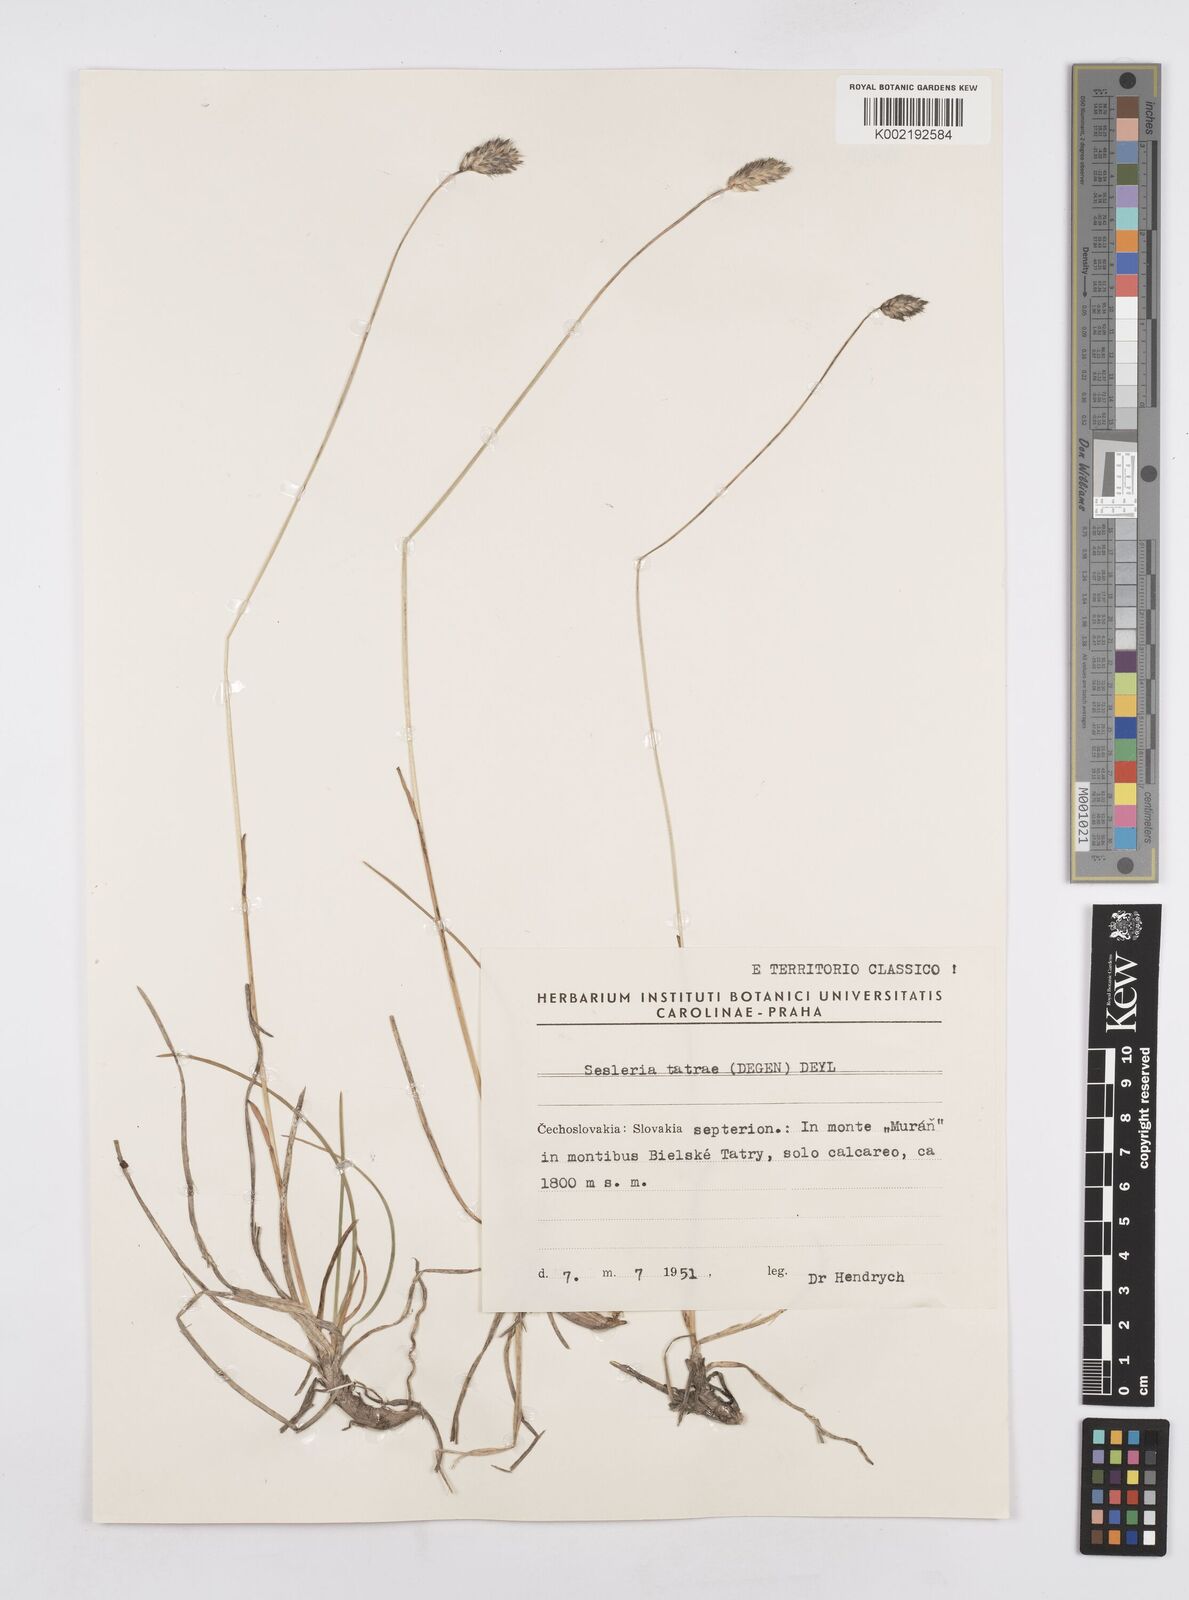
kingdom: Plantae
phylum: Tracheophyta
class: Liliopsida
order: Poales
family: Poaceae
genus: Sesleria
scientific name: Sesleria tatrae
